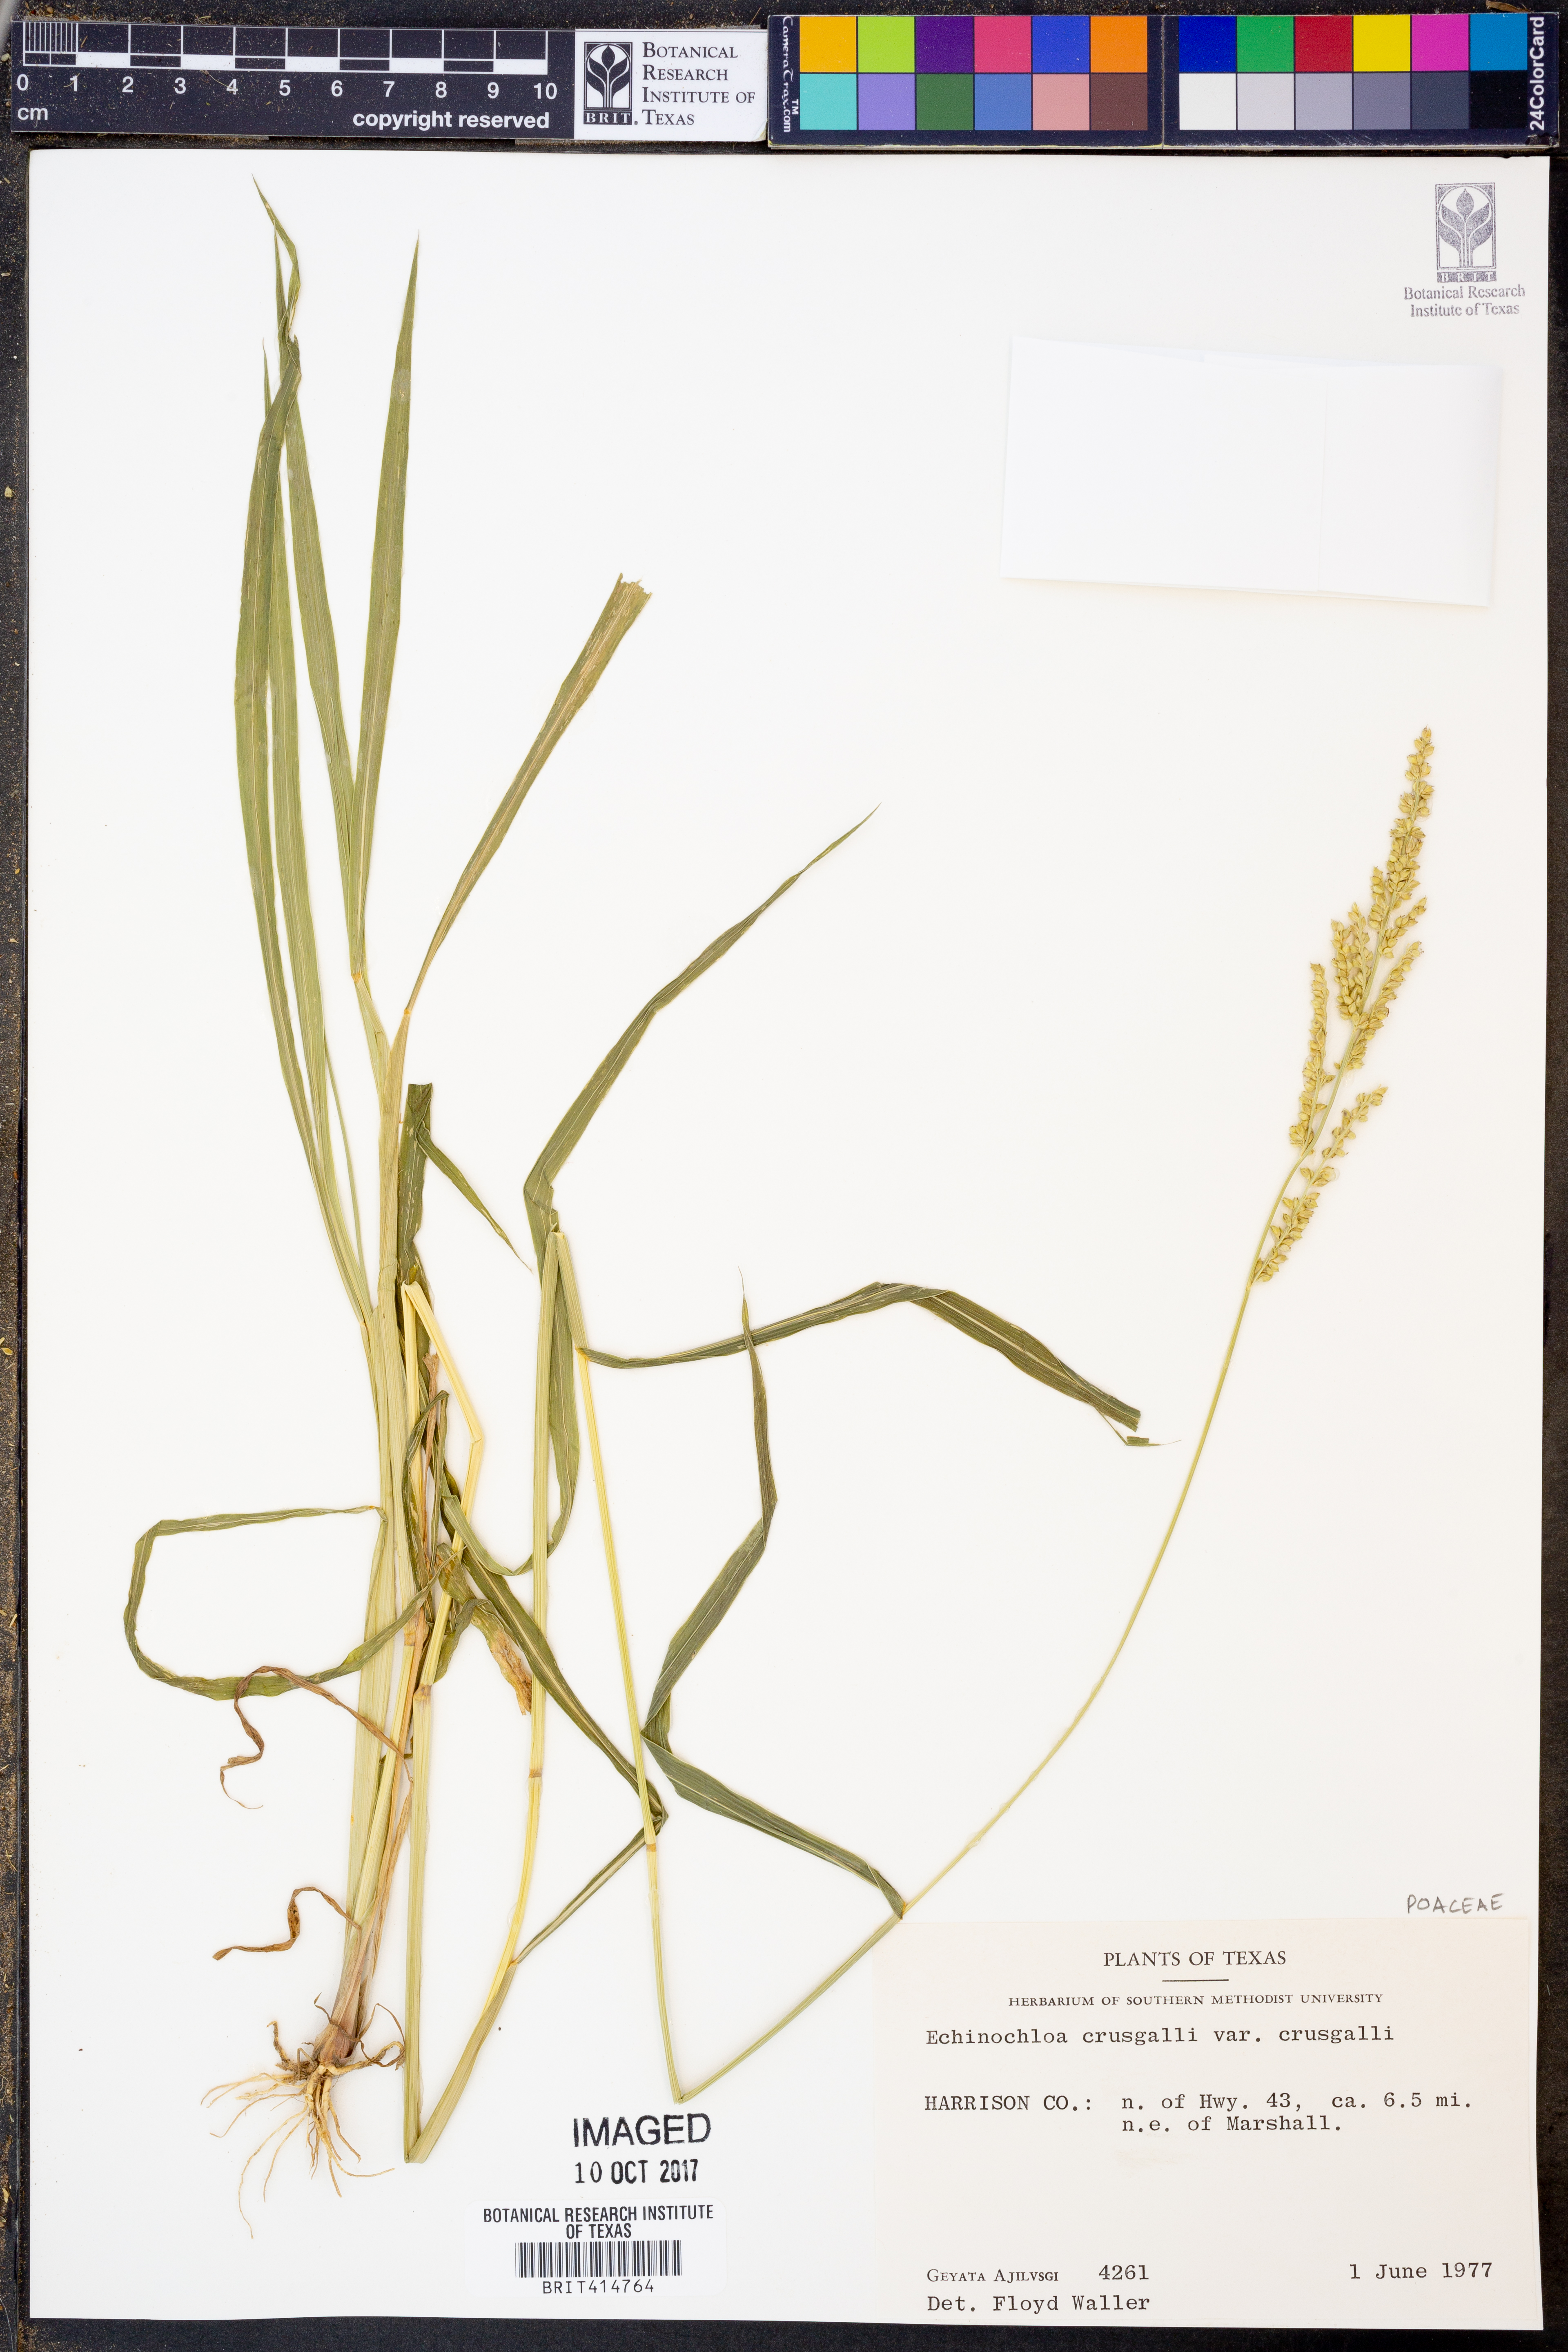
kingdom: Plantae
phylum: Tracheophyta
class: Liliopsida
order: Poales
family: Poaceae
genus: Echinochloa
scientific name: Echinochloa crus-galli
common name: Cockspur
